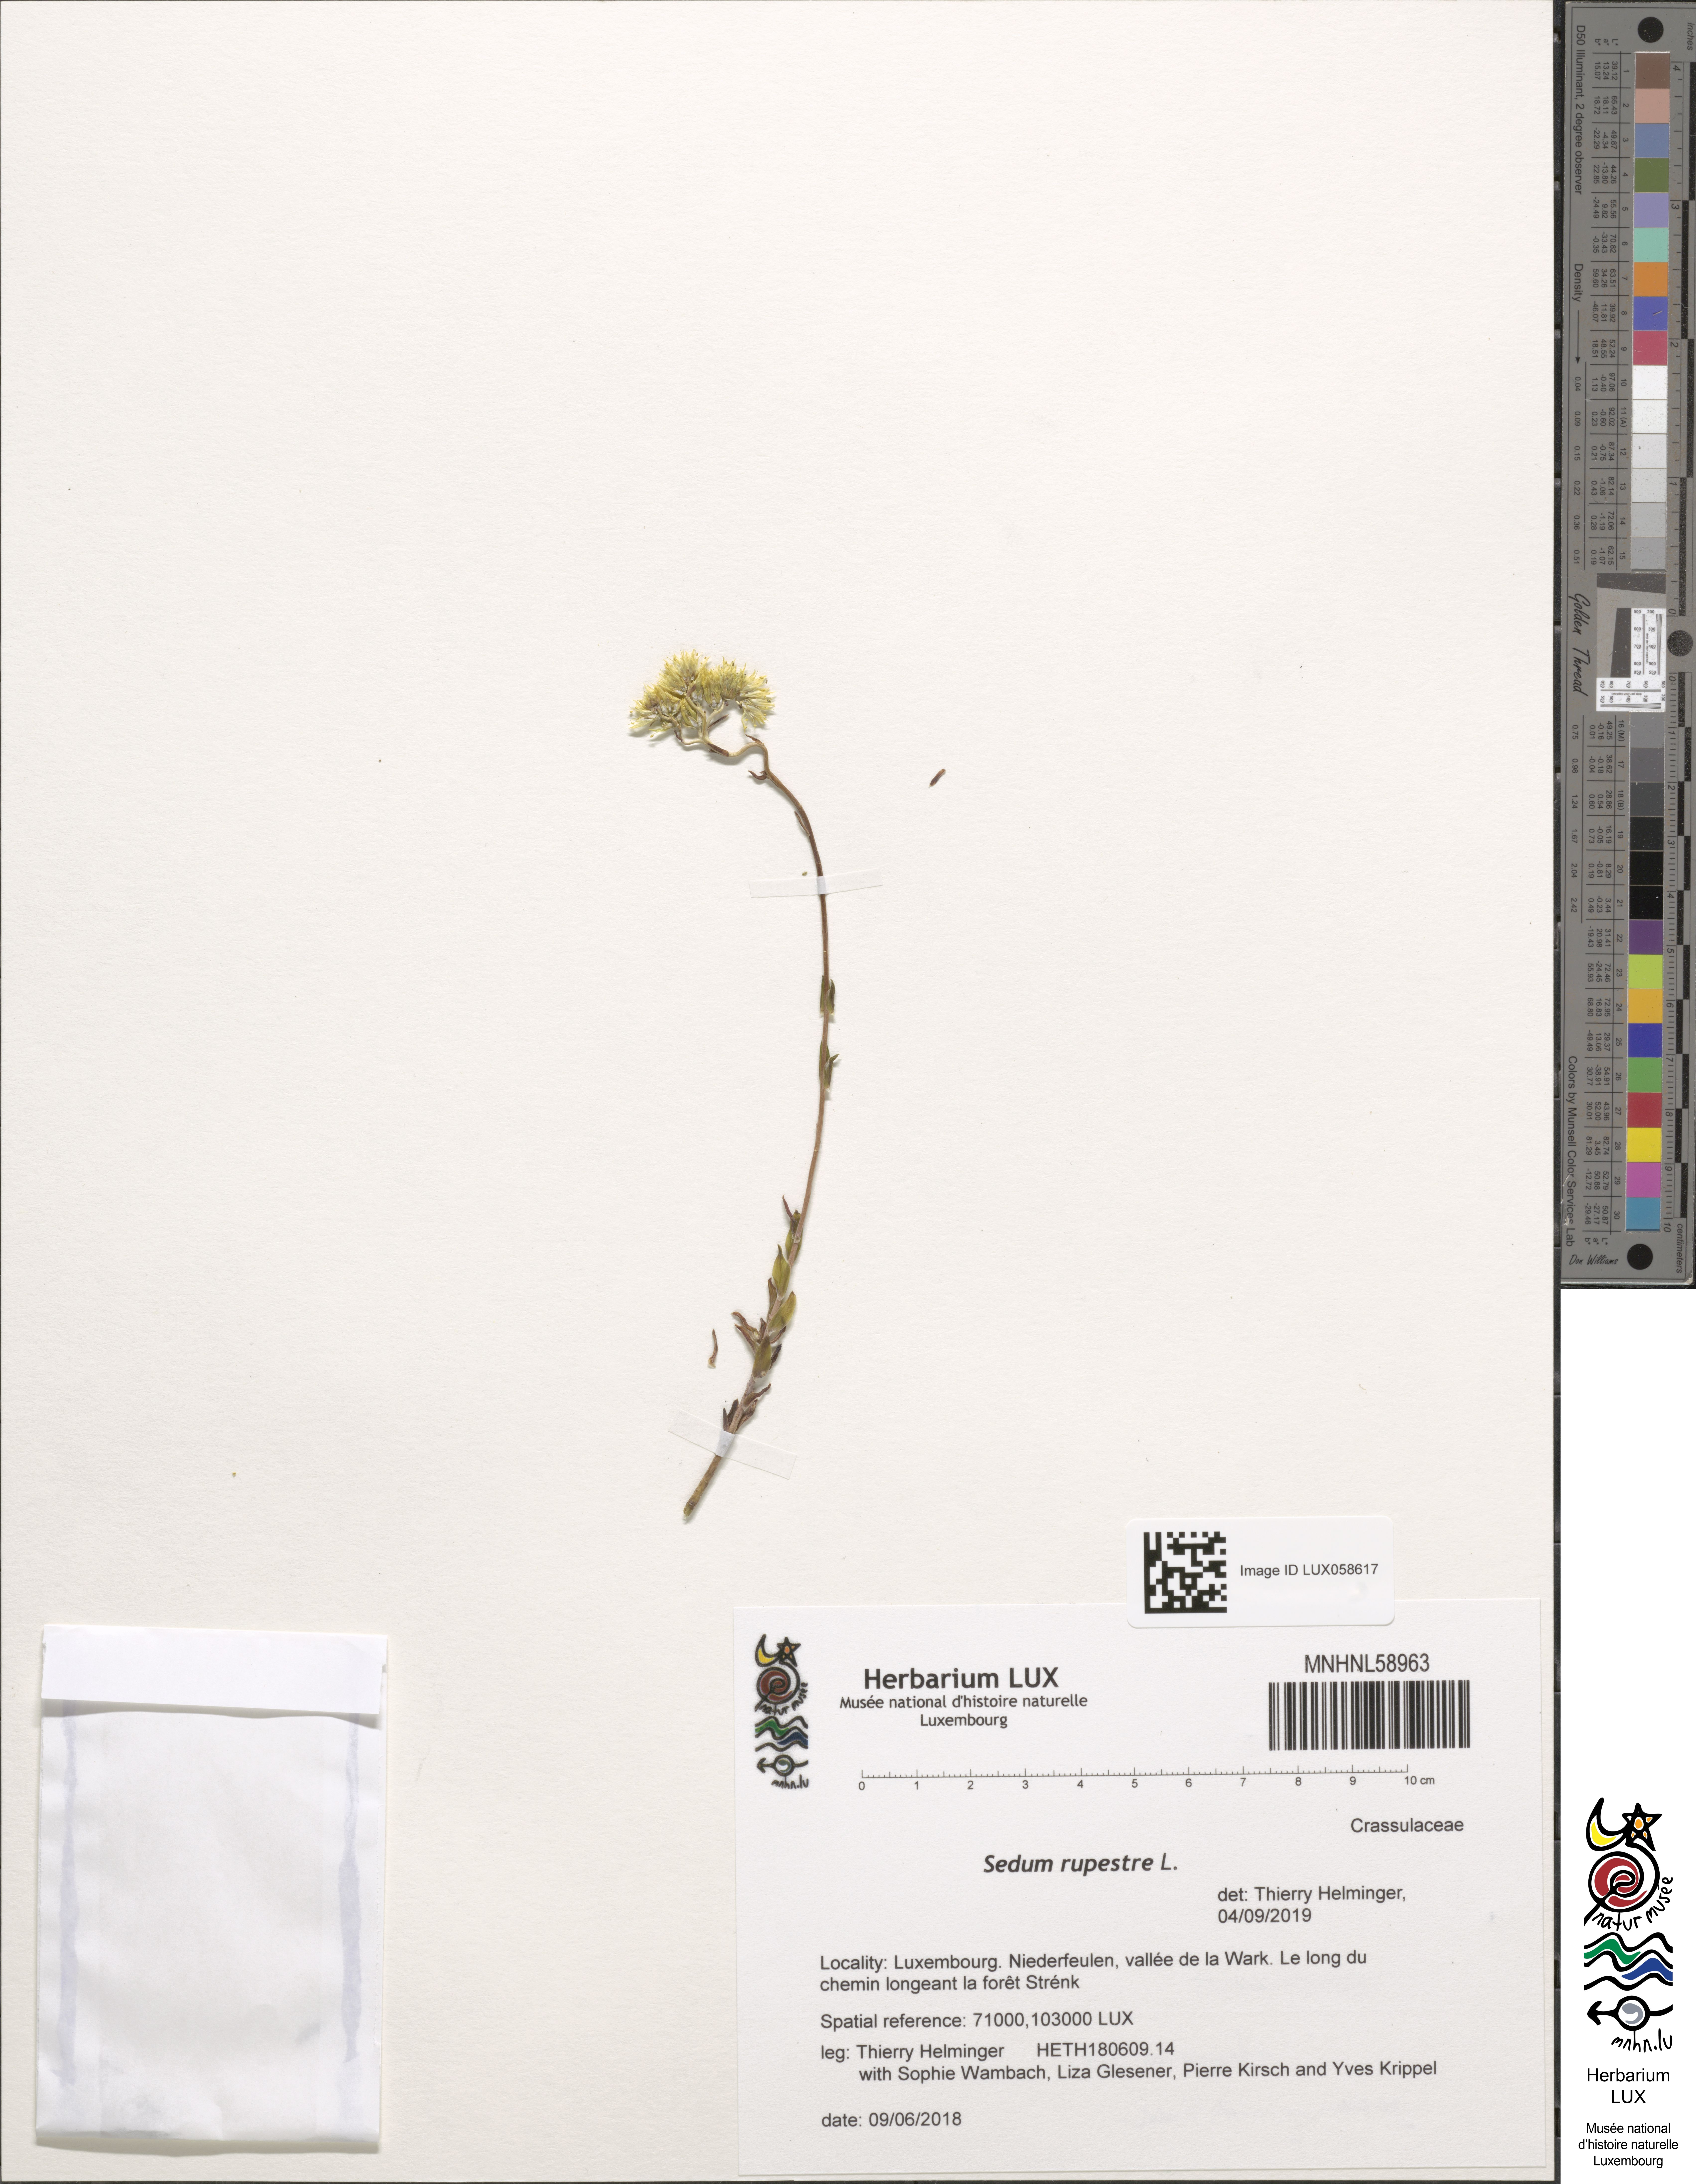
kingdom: Plantae
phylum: Tracheophyta
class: Magnoliopsida
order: Saxifragales
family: Crassulaceae
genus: Petrosedum
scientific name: Petrosedum rupestre
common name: Jenny's stonecrop
